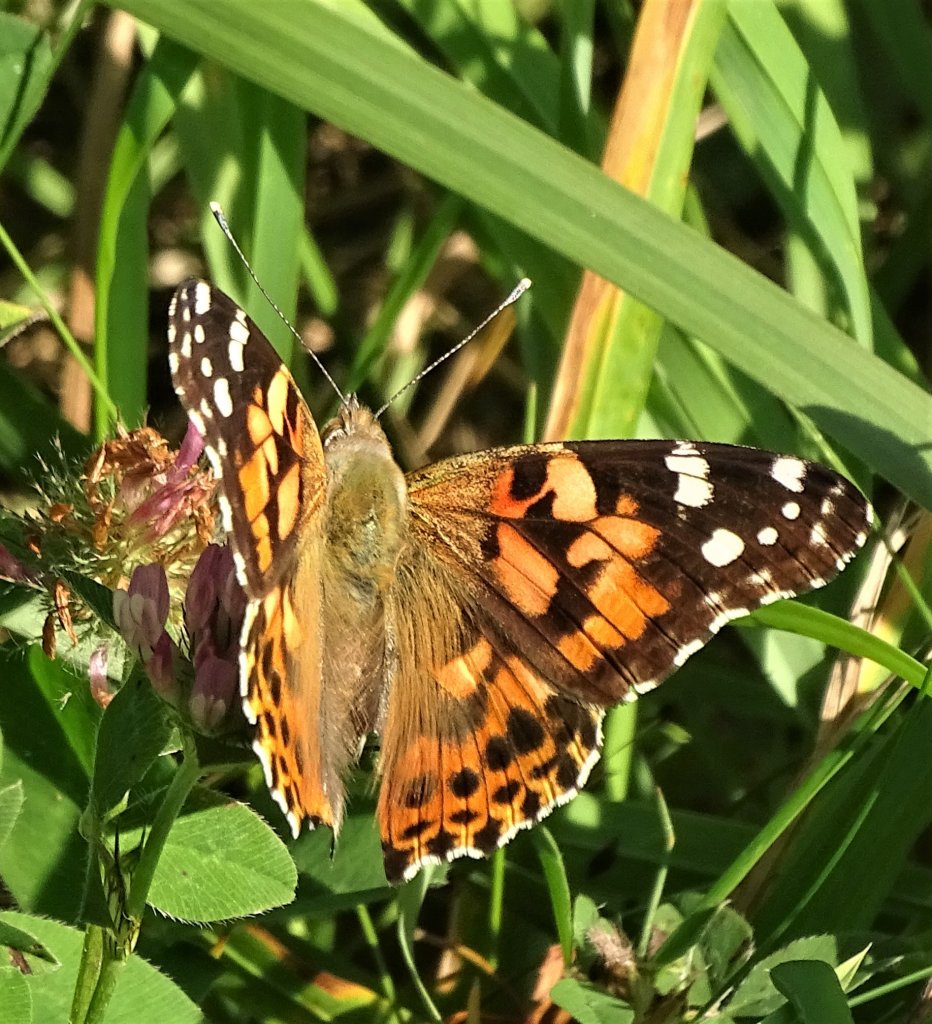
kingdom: Animalia
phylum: Arthropoda
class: Insecta
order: Lepidoptera
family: Nymphalidae
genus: Vanessa
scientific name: Vanessa cardui
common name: Painted Lady
